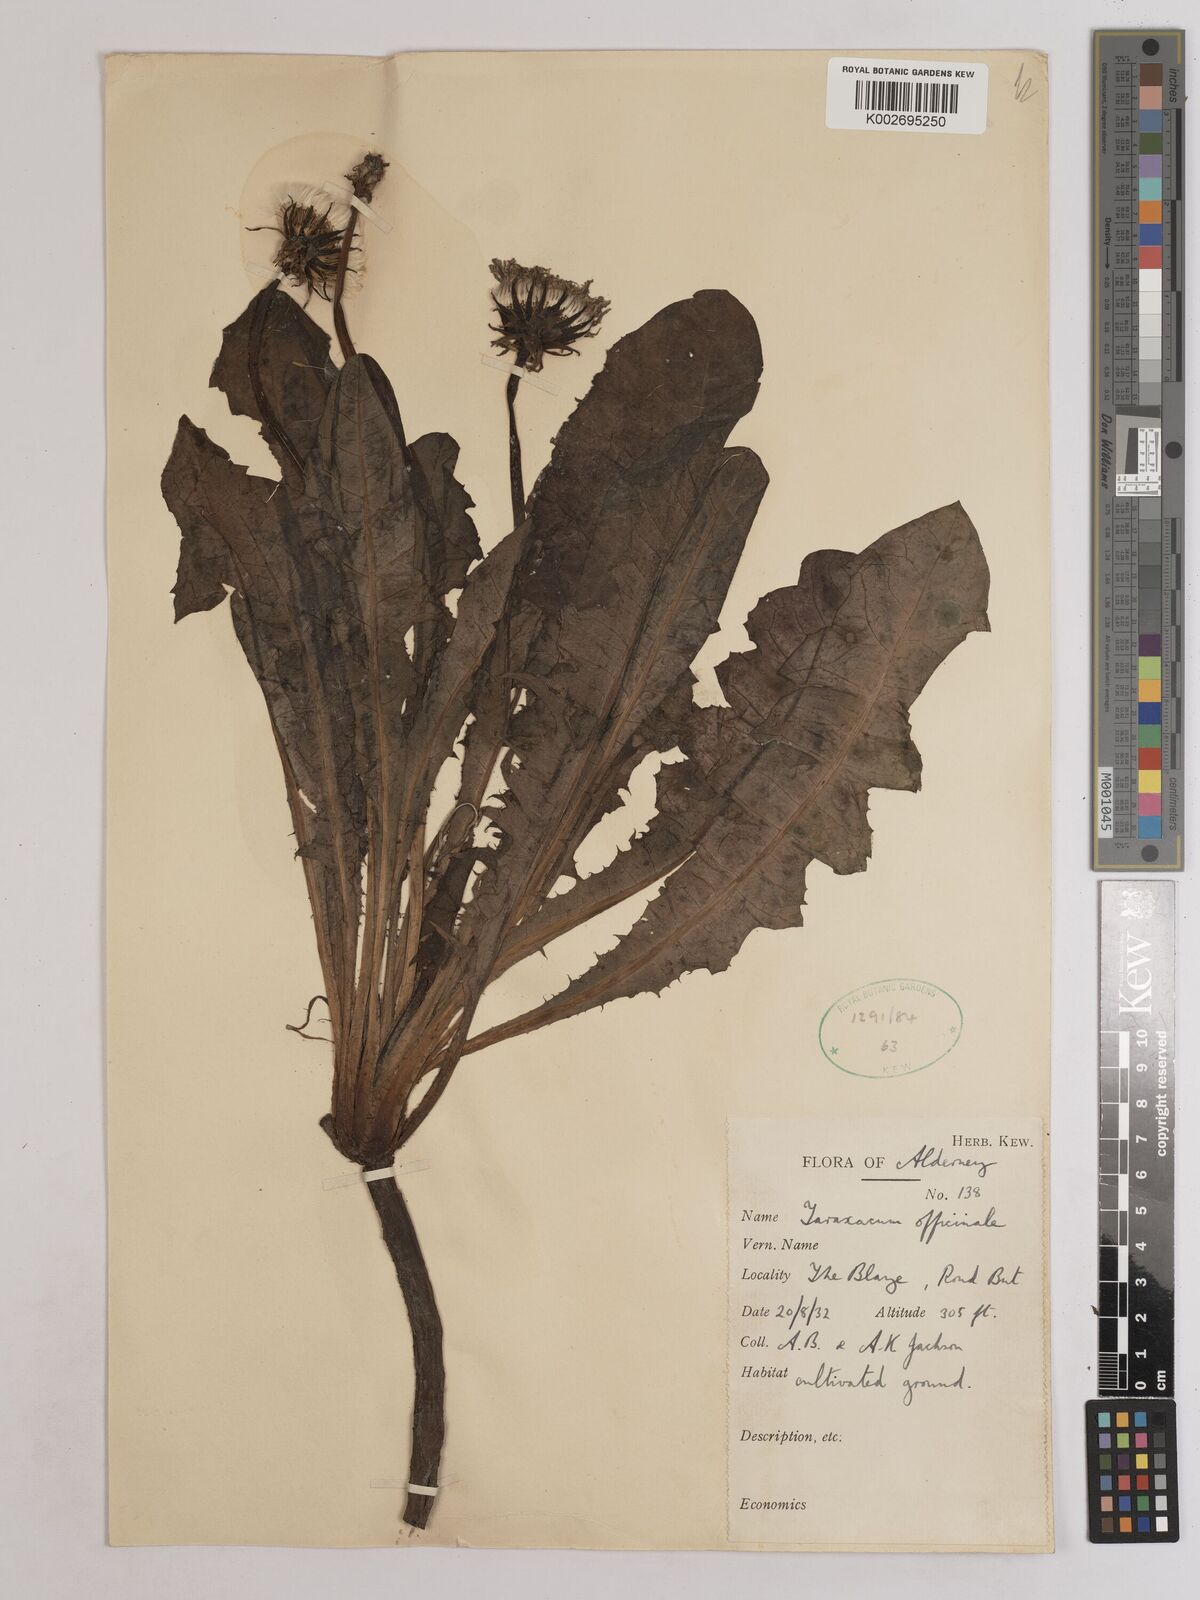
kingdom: Plantae
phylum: Tracheophyta
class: Magnoliopsida
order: Asterales
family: Asteraceae
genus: Taraxacum
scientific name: Taraxacum officinale
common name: Common dandelion
